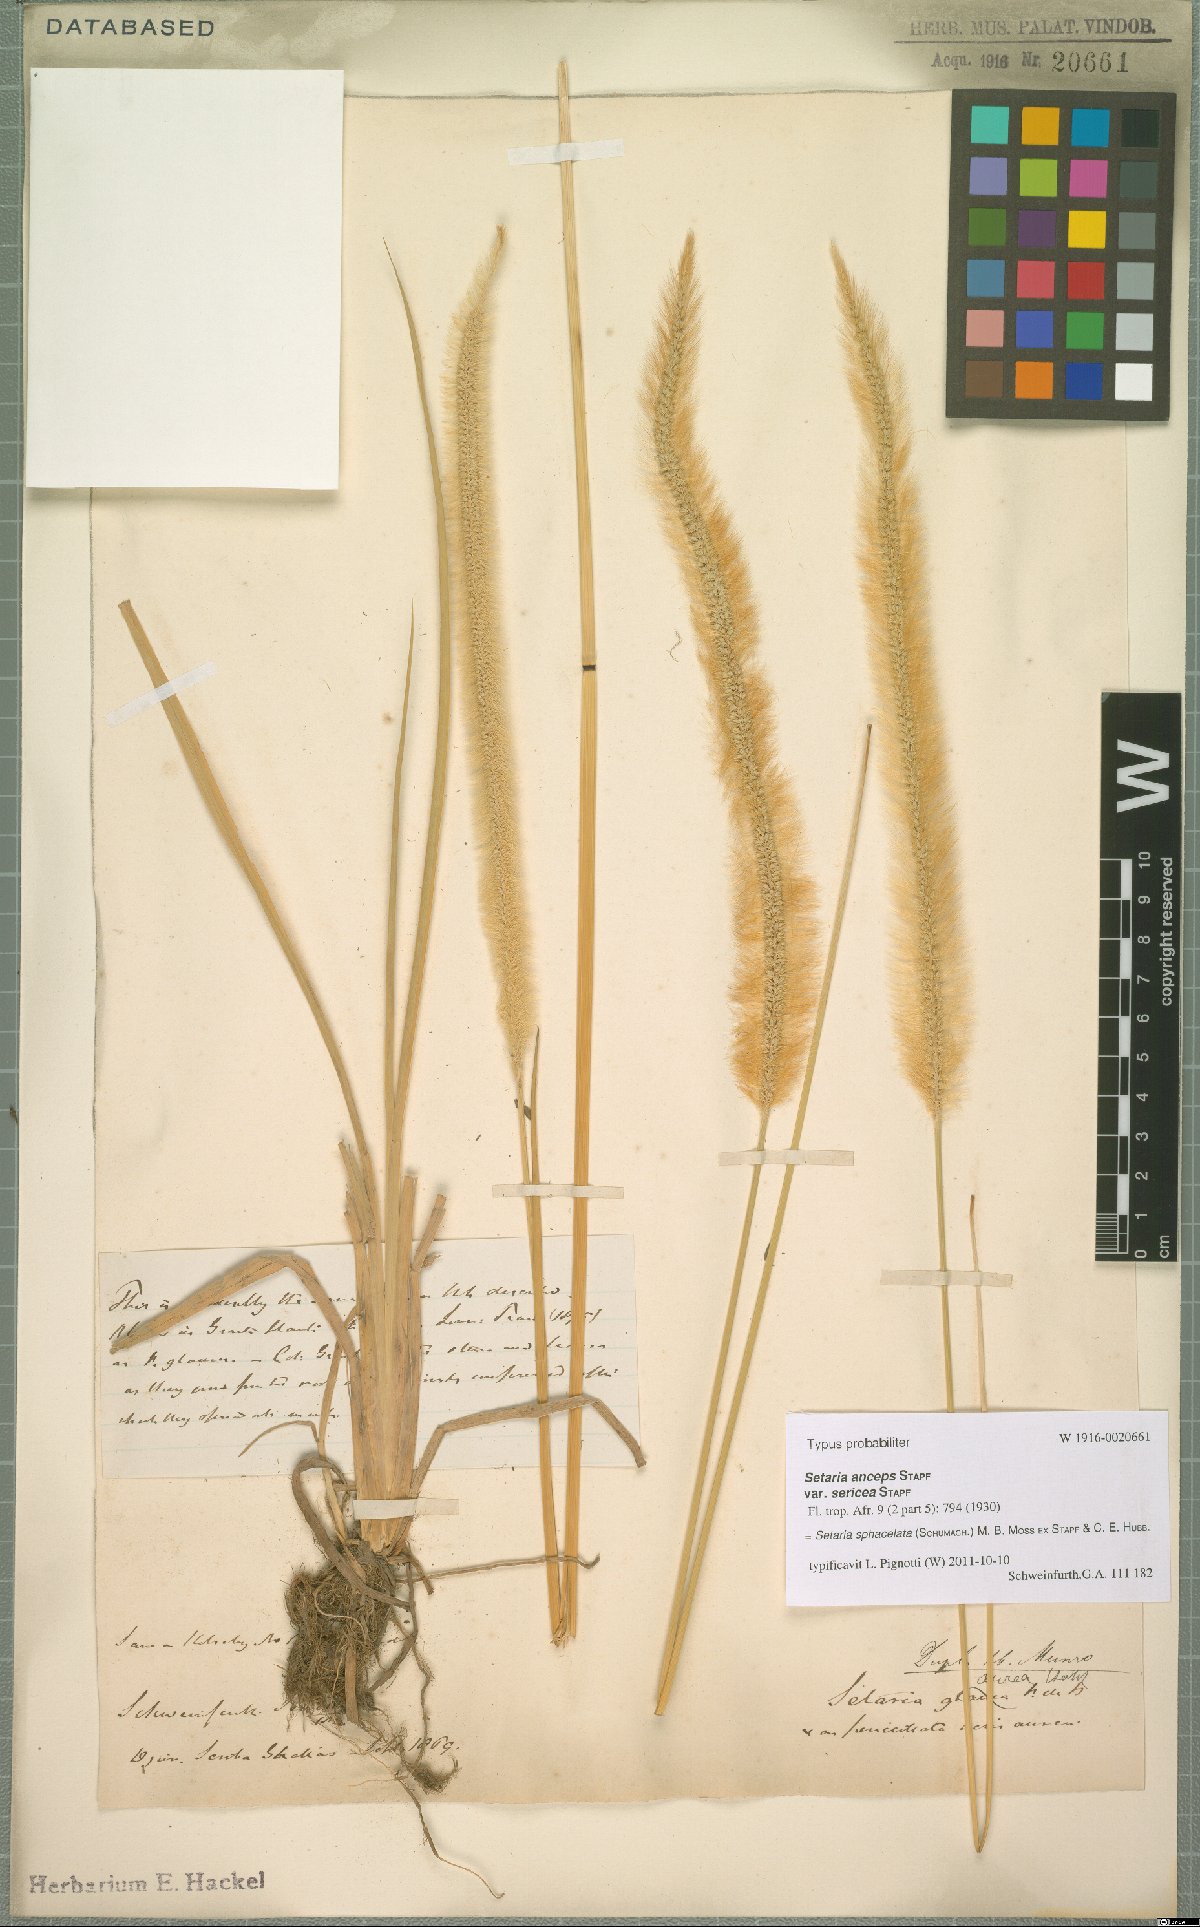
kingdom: Plantae
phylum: Tracheophyta
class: Liliopsida
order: Poales
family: Poaceae
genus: Setaria
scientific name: Setaria sphacelata
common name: African bristlegrass
